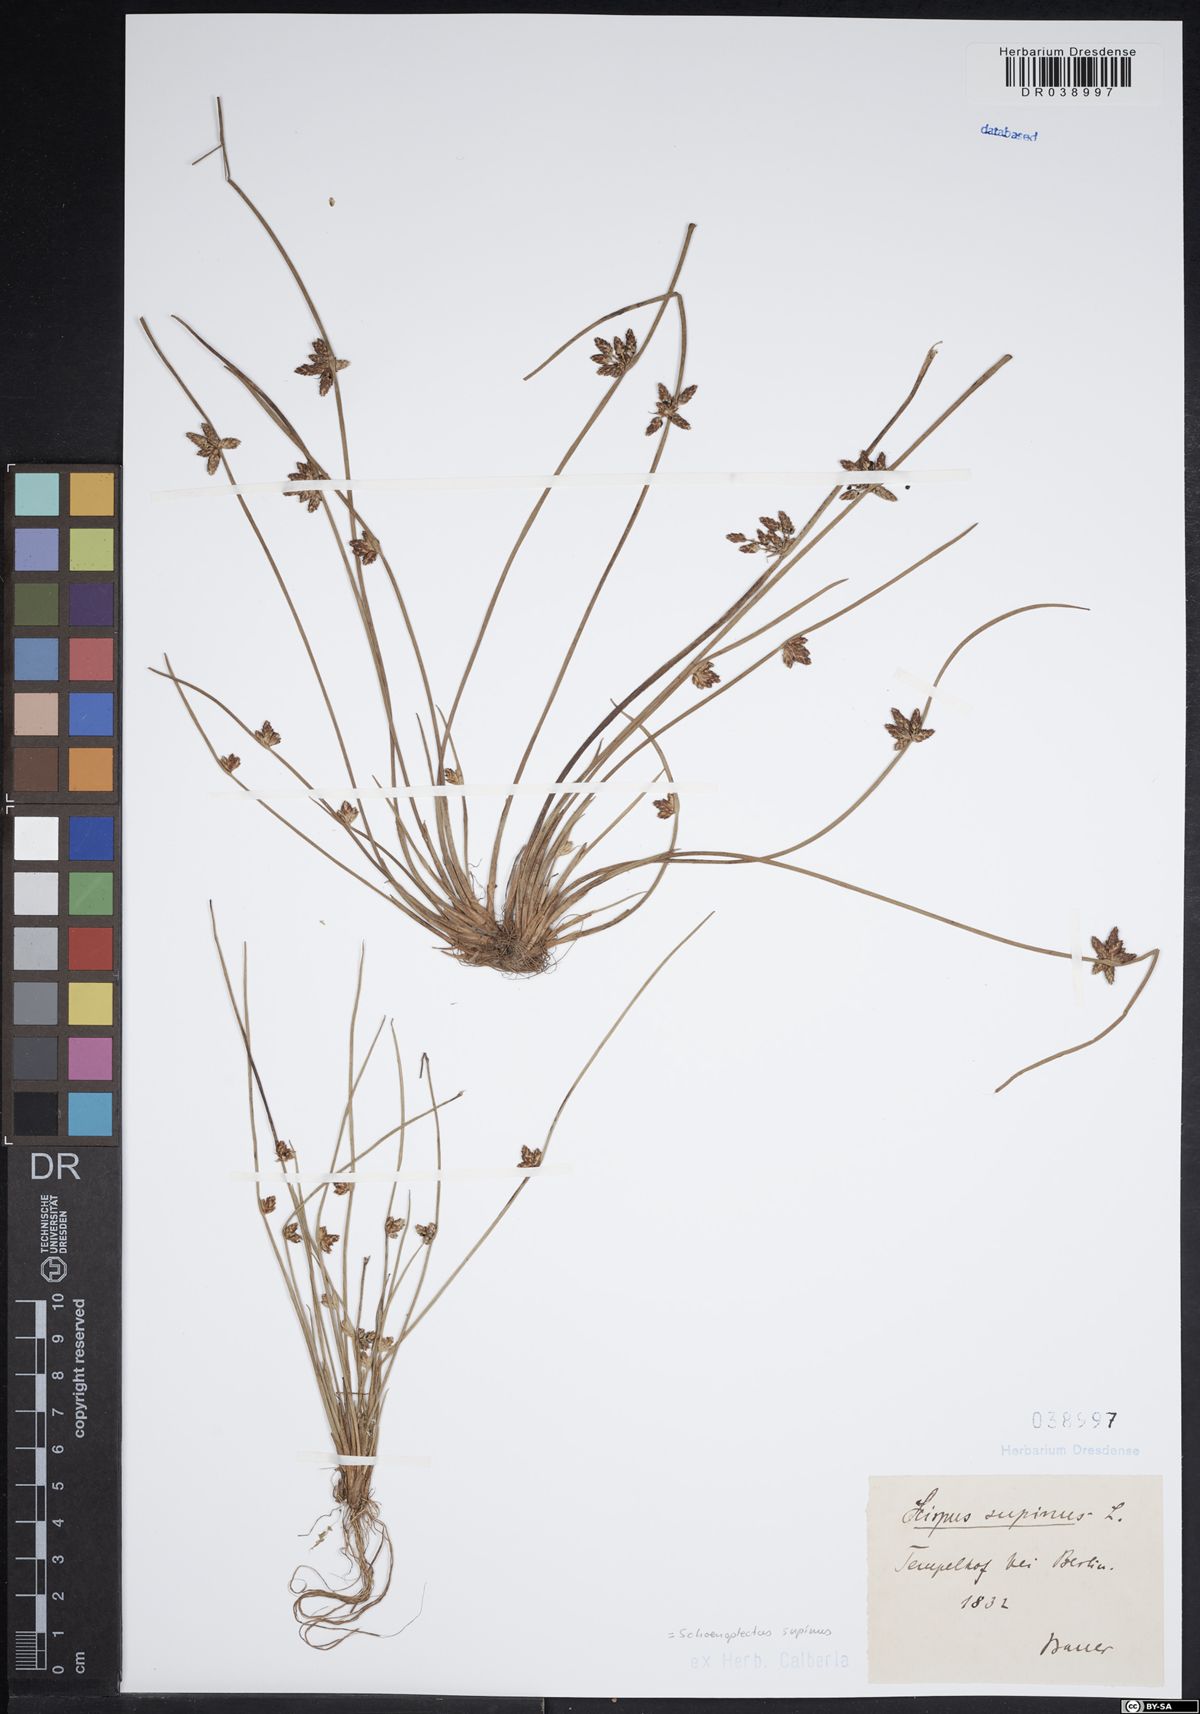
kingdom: Plantae
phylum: Tracheophyta
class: Liliopsida
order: Poales
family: Cyperaceae
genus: Schoenoplectiella
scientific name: Schoenoplectiella supina
